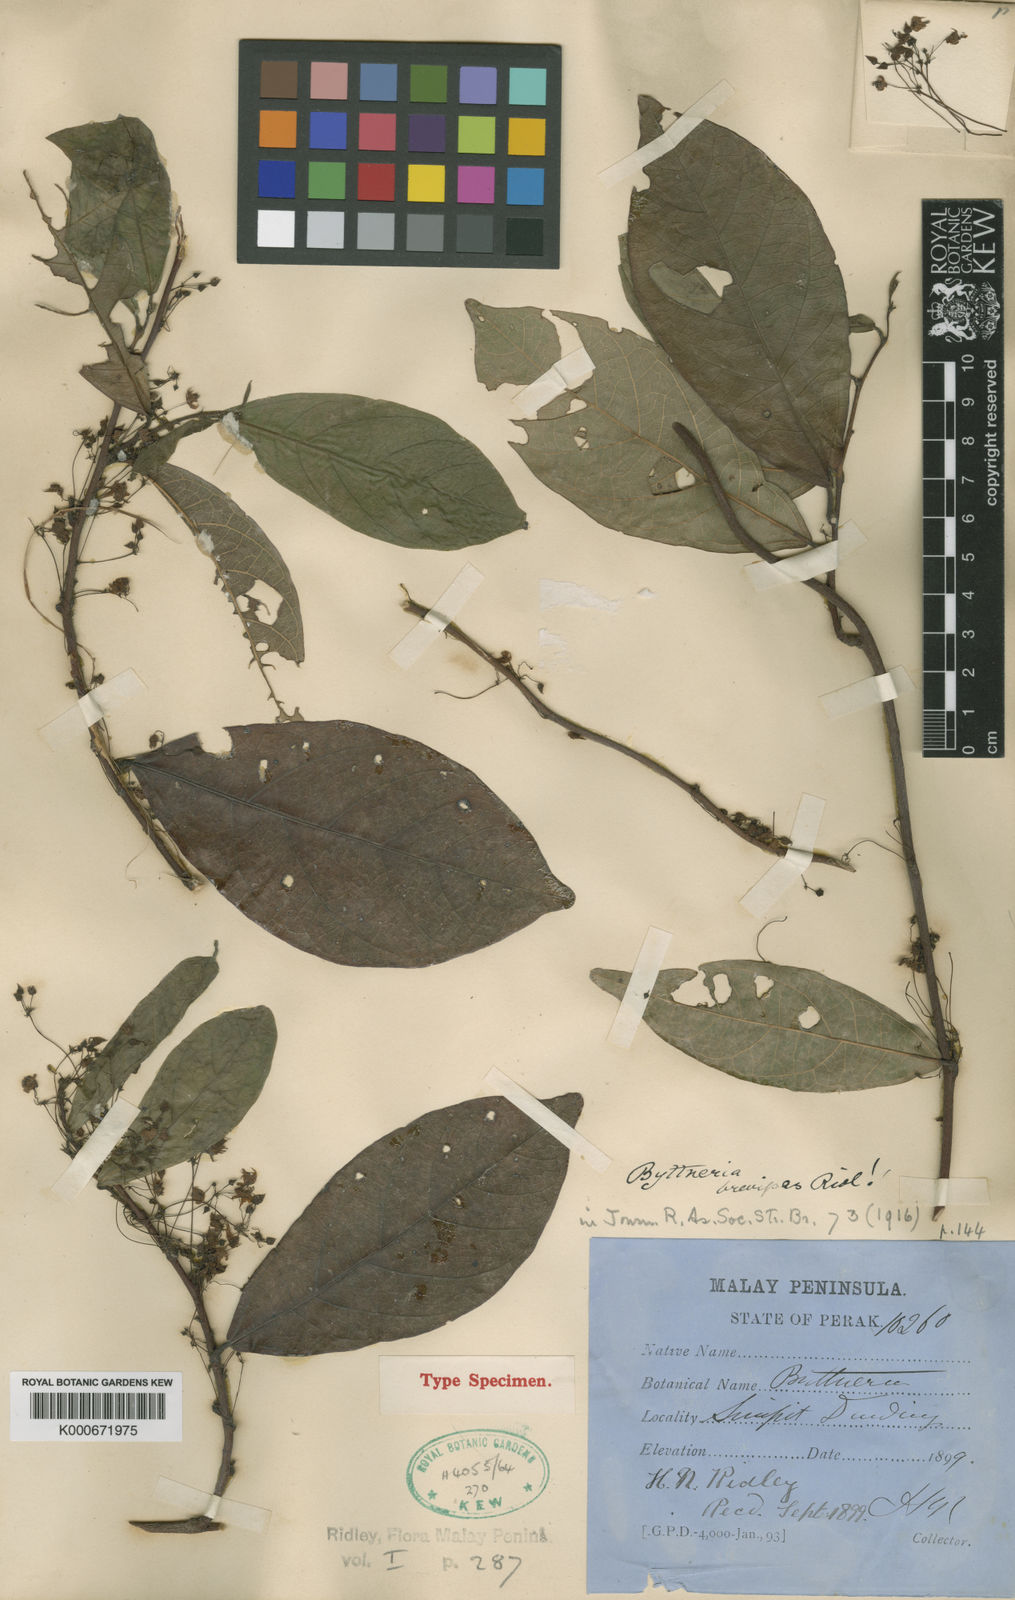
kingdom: Plantae
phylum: Tracheophyta
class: Magnoliopsida
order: Malvales
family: Malvaceae
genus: Byttneria
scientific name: Byttneria beccarii
